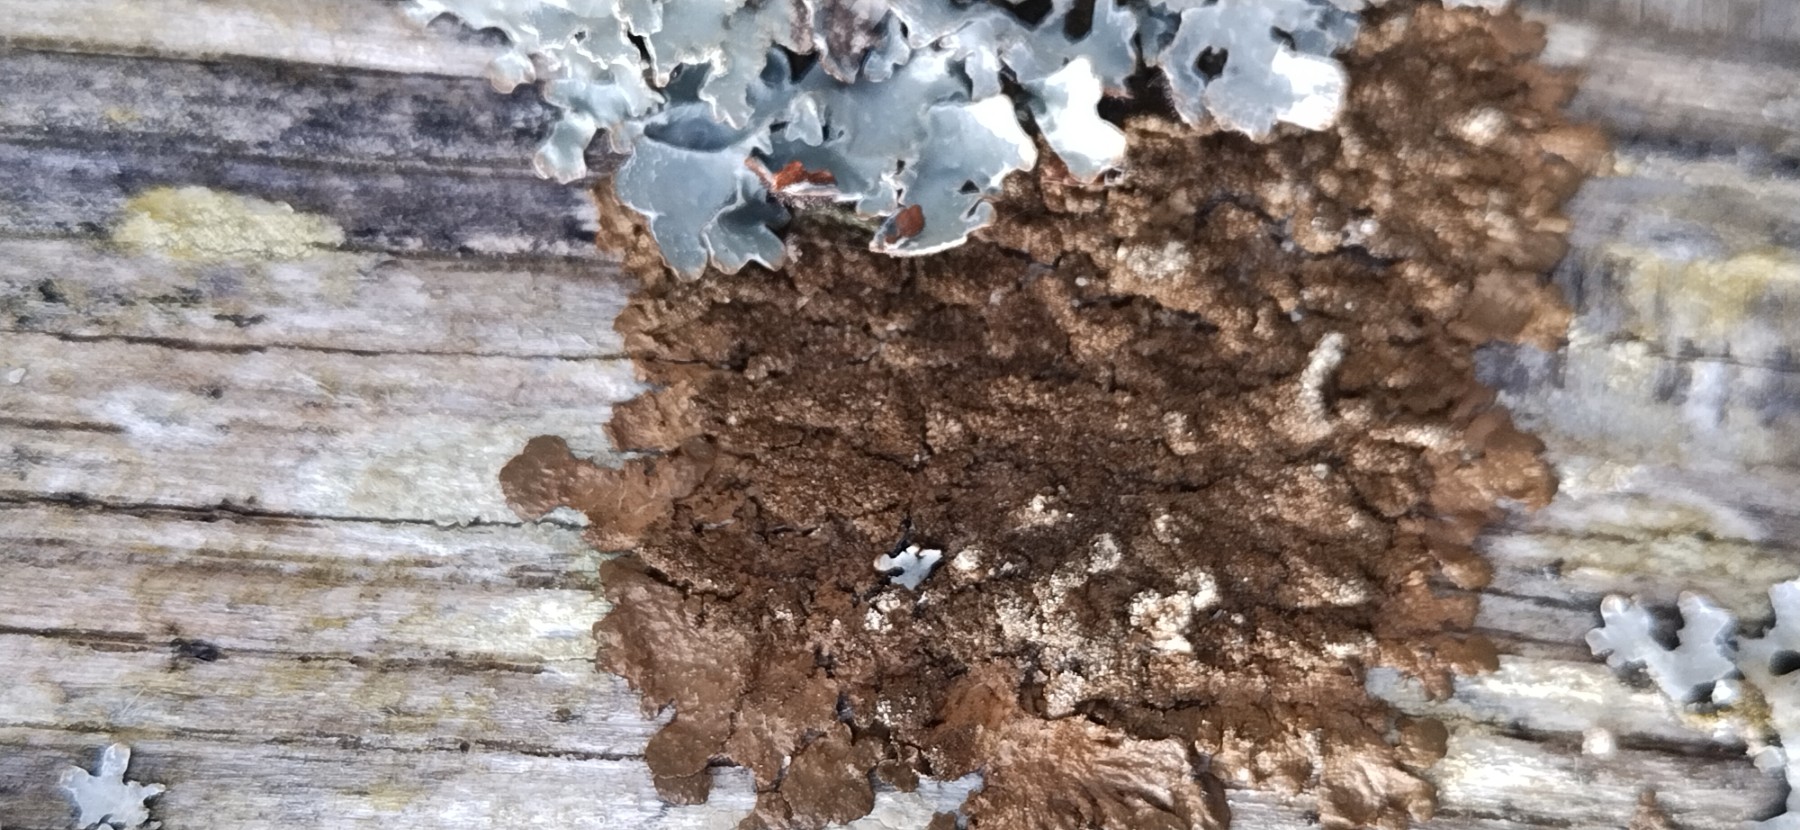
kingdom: Fungi
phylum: Ascomycota
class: Lecanoromycetes
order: Lecanorales
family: Parmeliaceae
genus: Melanelixia
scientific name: Melanelixia subaurifera
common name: guldpudret skållav
